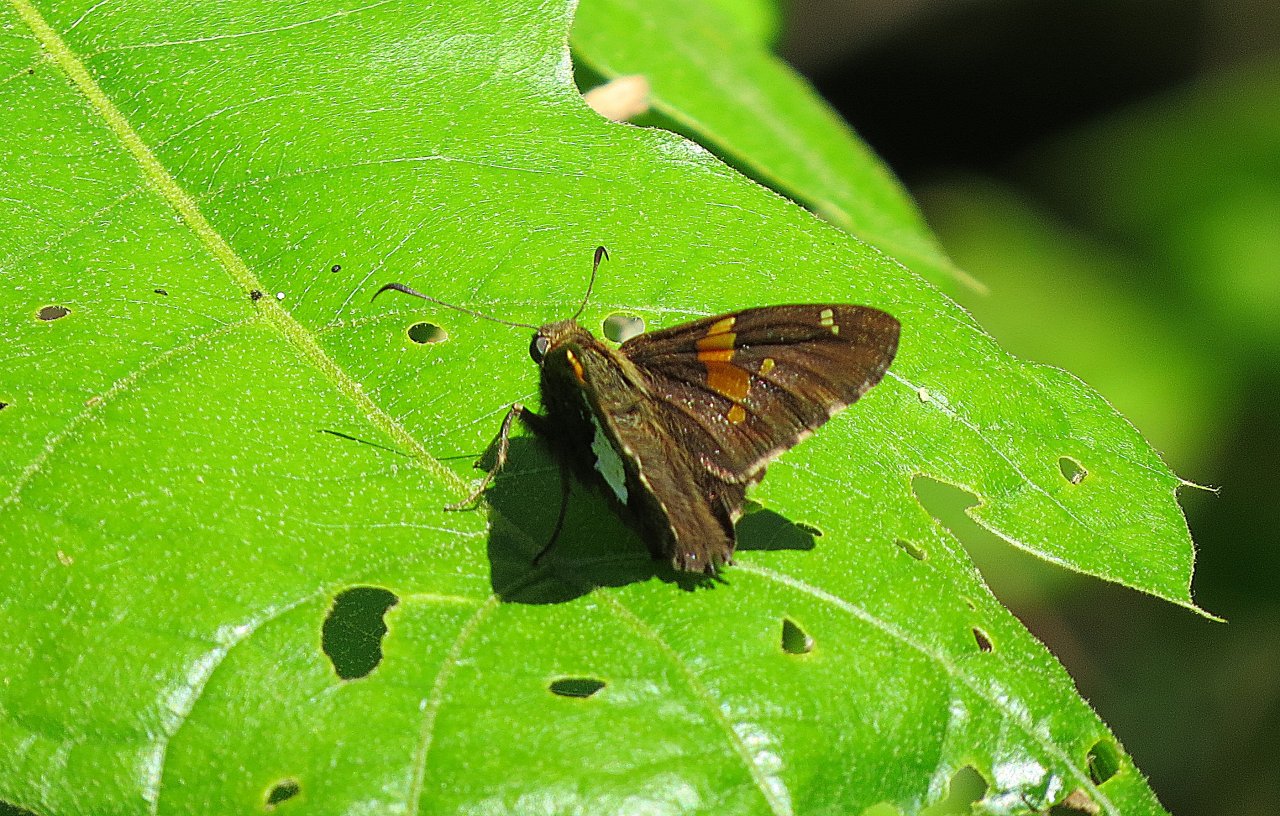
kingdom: Animalia
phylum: Arthropoda
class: Insecta
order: Lepidoptera
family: Hesperiidae
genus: Epargyreus
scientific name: Epargyreus clarus
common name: Silver-spotted Skipper
